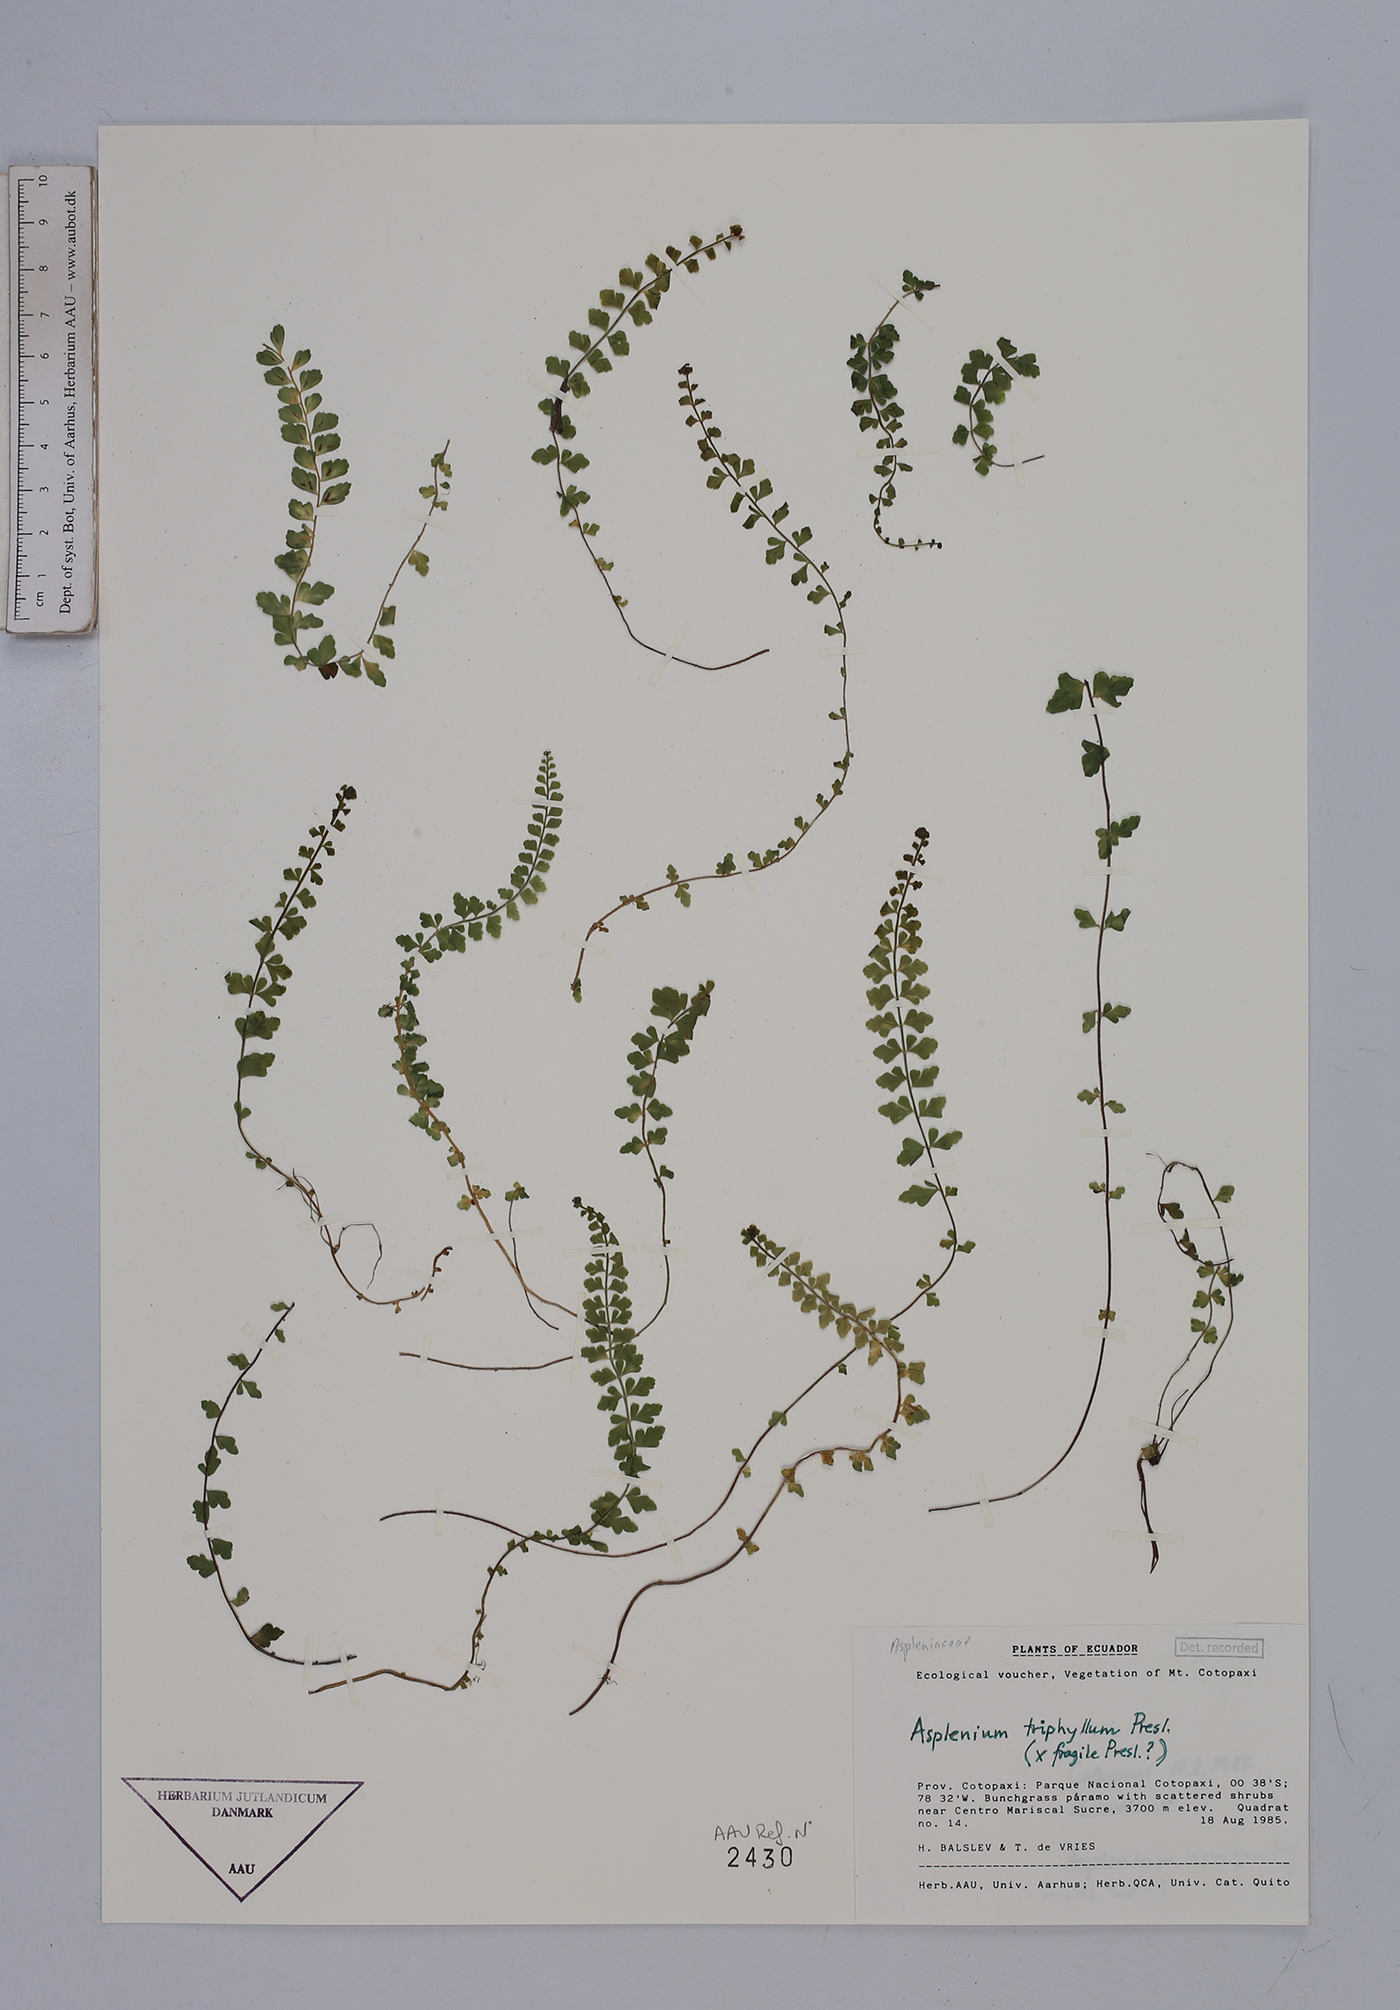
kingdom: Plantae
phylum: Tracheophyta
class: Polypodiopsida
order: Polypodiales
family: Aspleniaceae
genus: Asplenium
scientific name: Asplenium triphyllum
